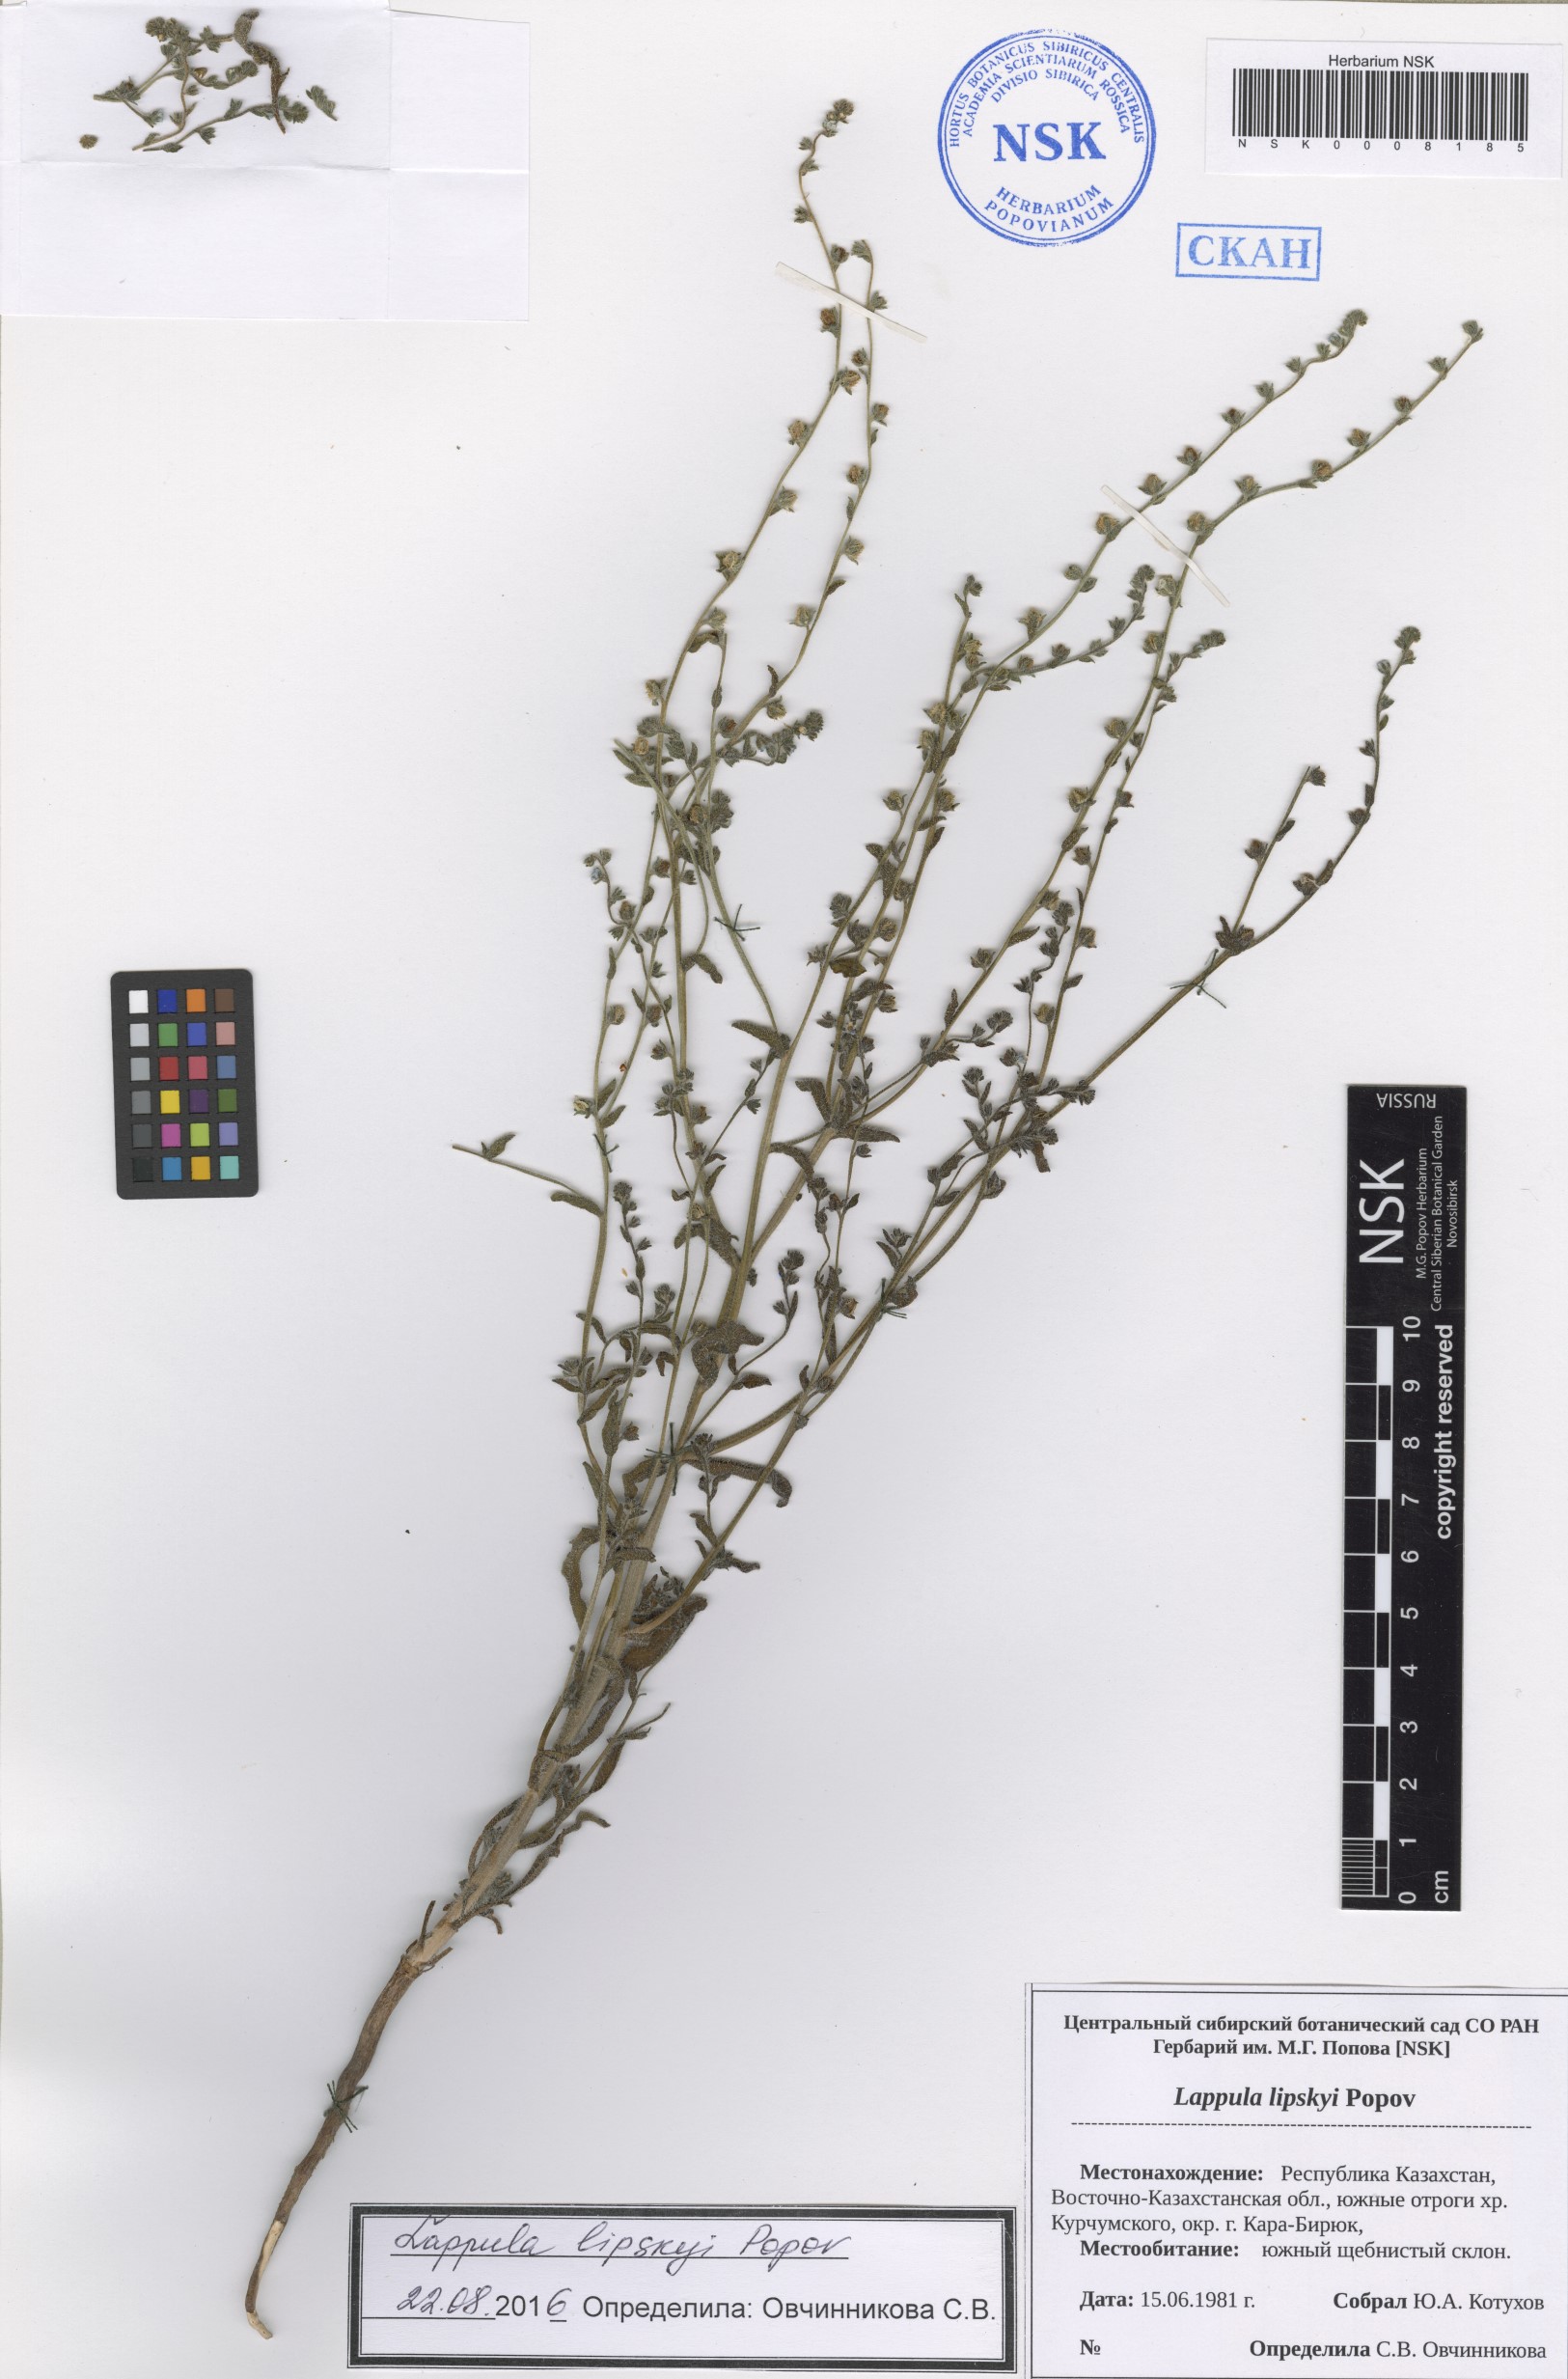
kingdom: Plantae
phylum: Tracheophyta
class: Magnoliopsida
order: Boraginales
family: Boraginaceae
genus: Lappula
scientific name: Lappula lipskyi
